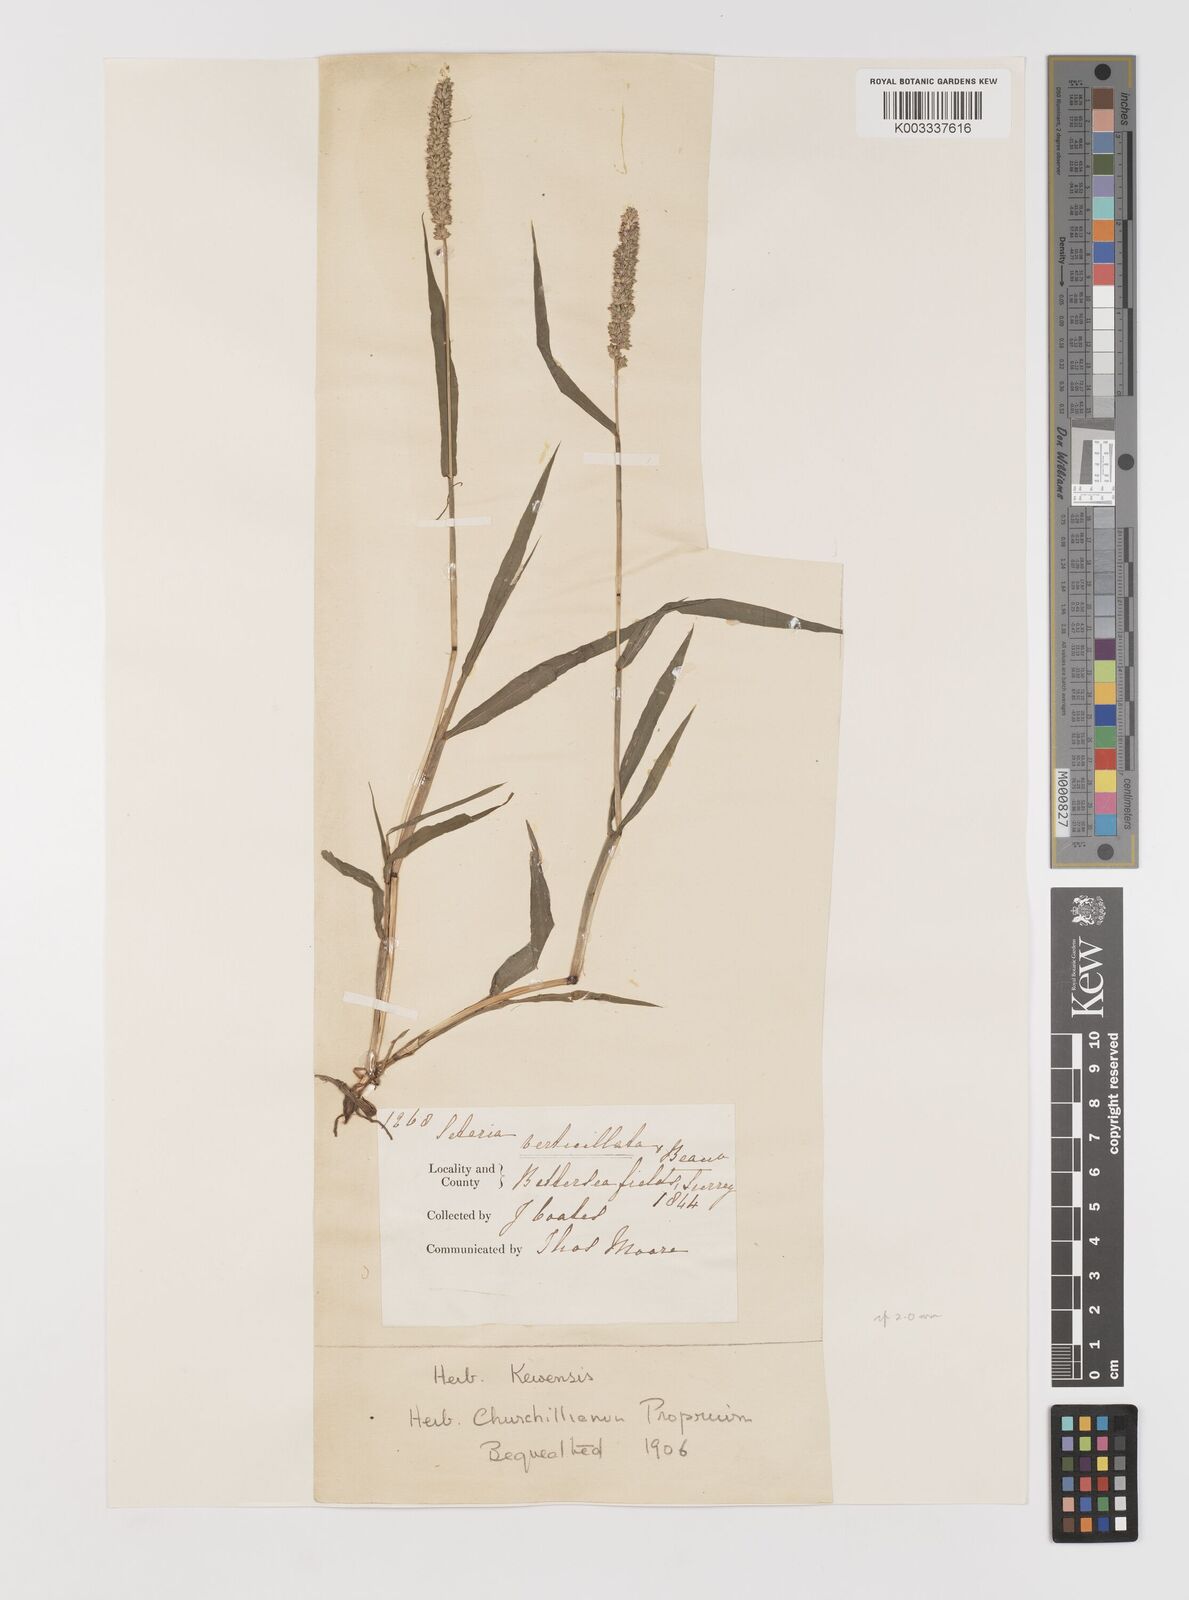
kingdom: Plantae
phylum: Tracheophyta
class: Liliopsida
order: Poales
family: Poaceae
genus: Setaria
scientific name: Setaria verticillata
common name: Hooked bristlegrass
